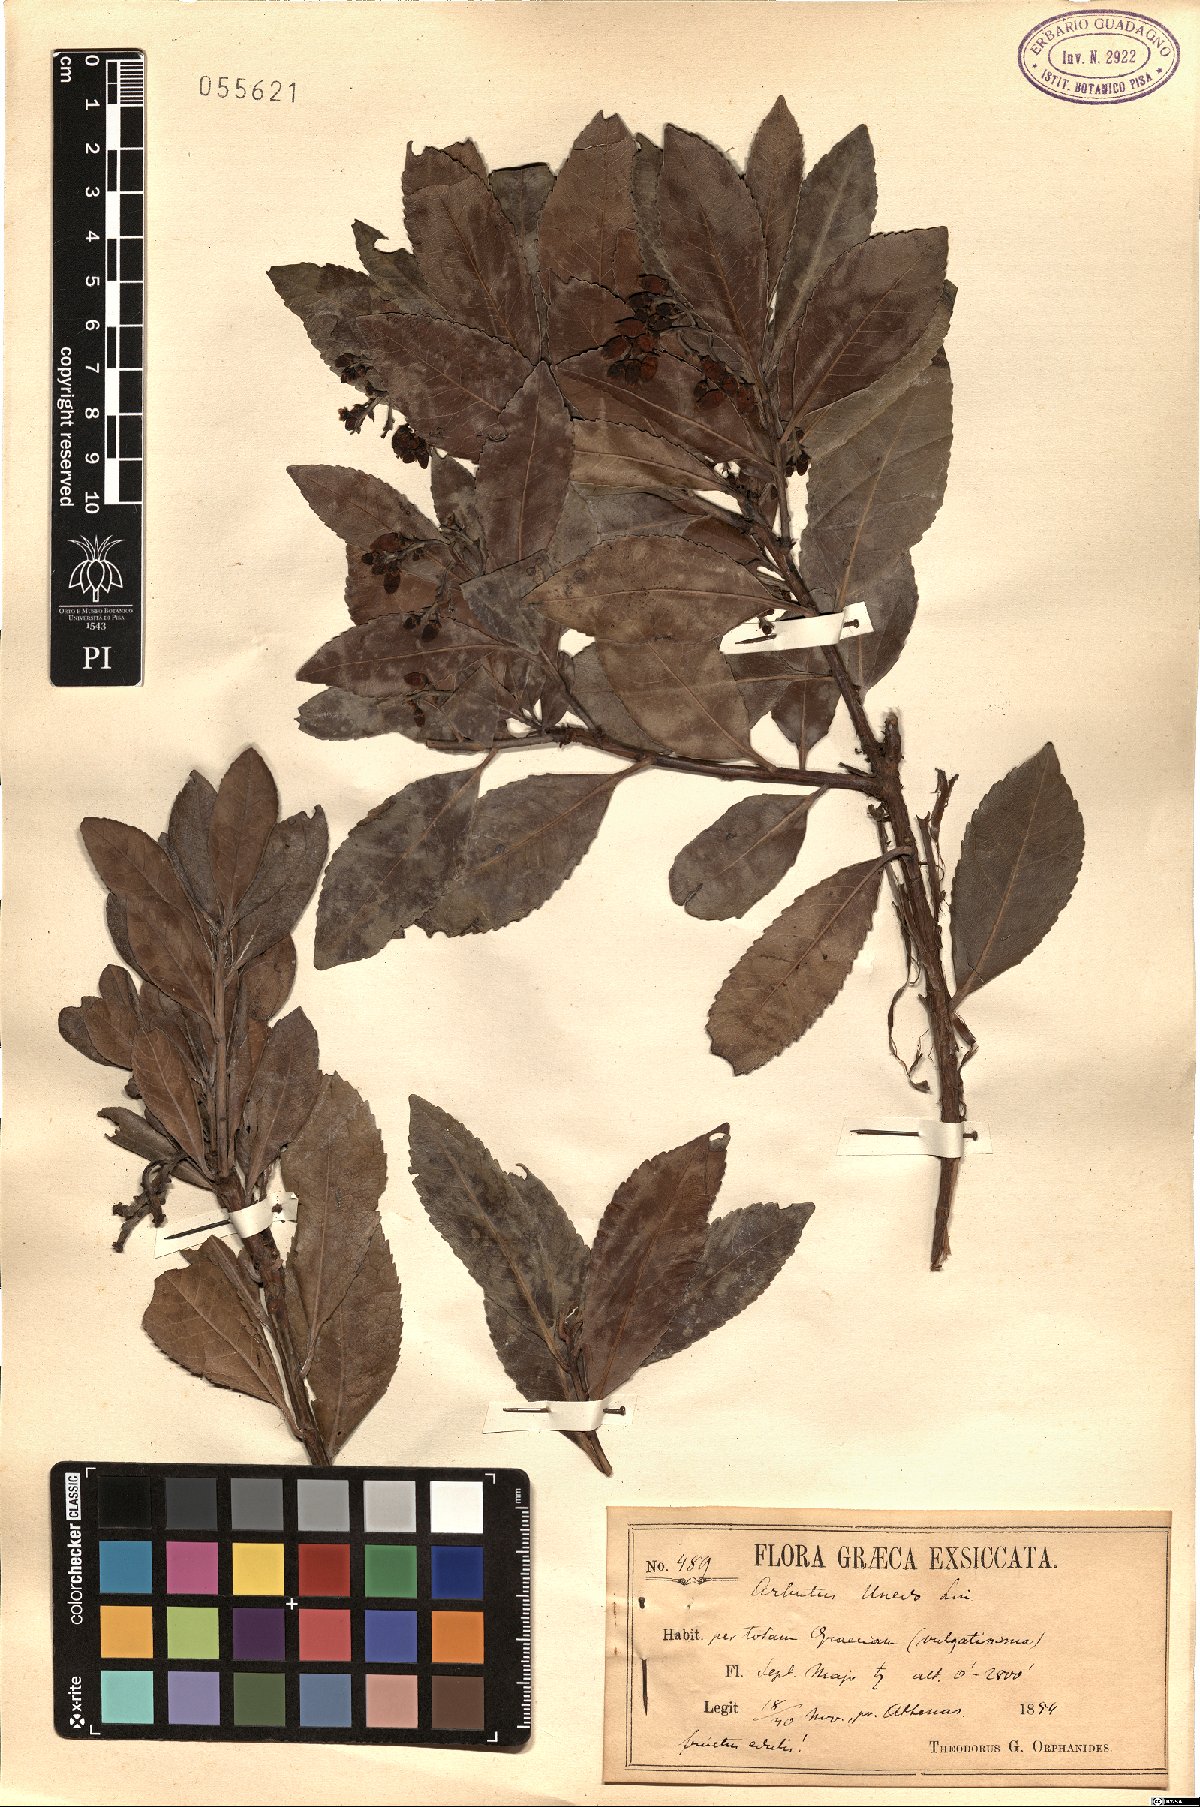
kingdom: Plantae
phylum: Tracheophyta
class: Magnoliopsida
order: Ericales
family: Ericaceae
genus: Arbutus
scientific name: Arbutus unedo
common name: Strawberry-tree
